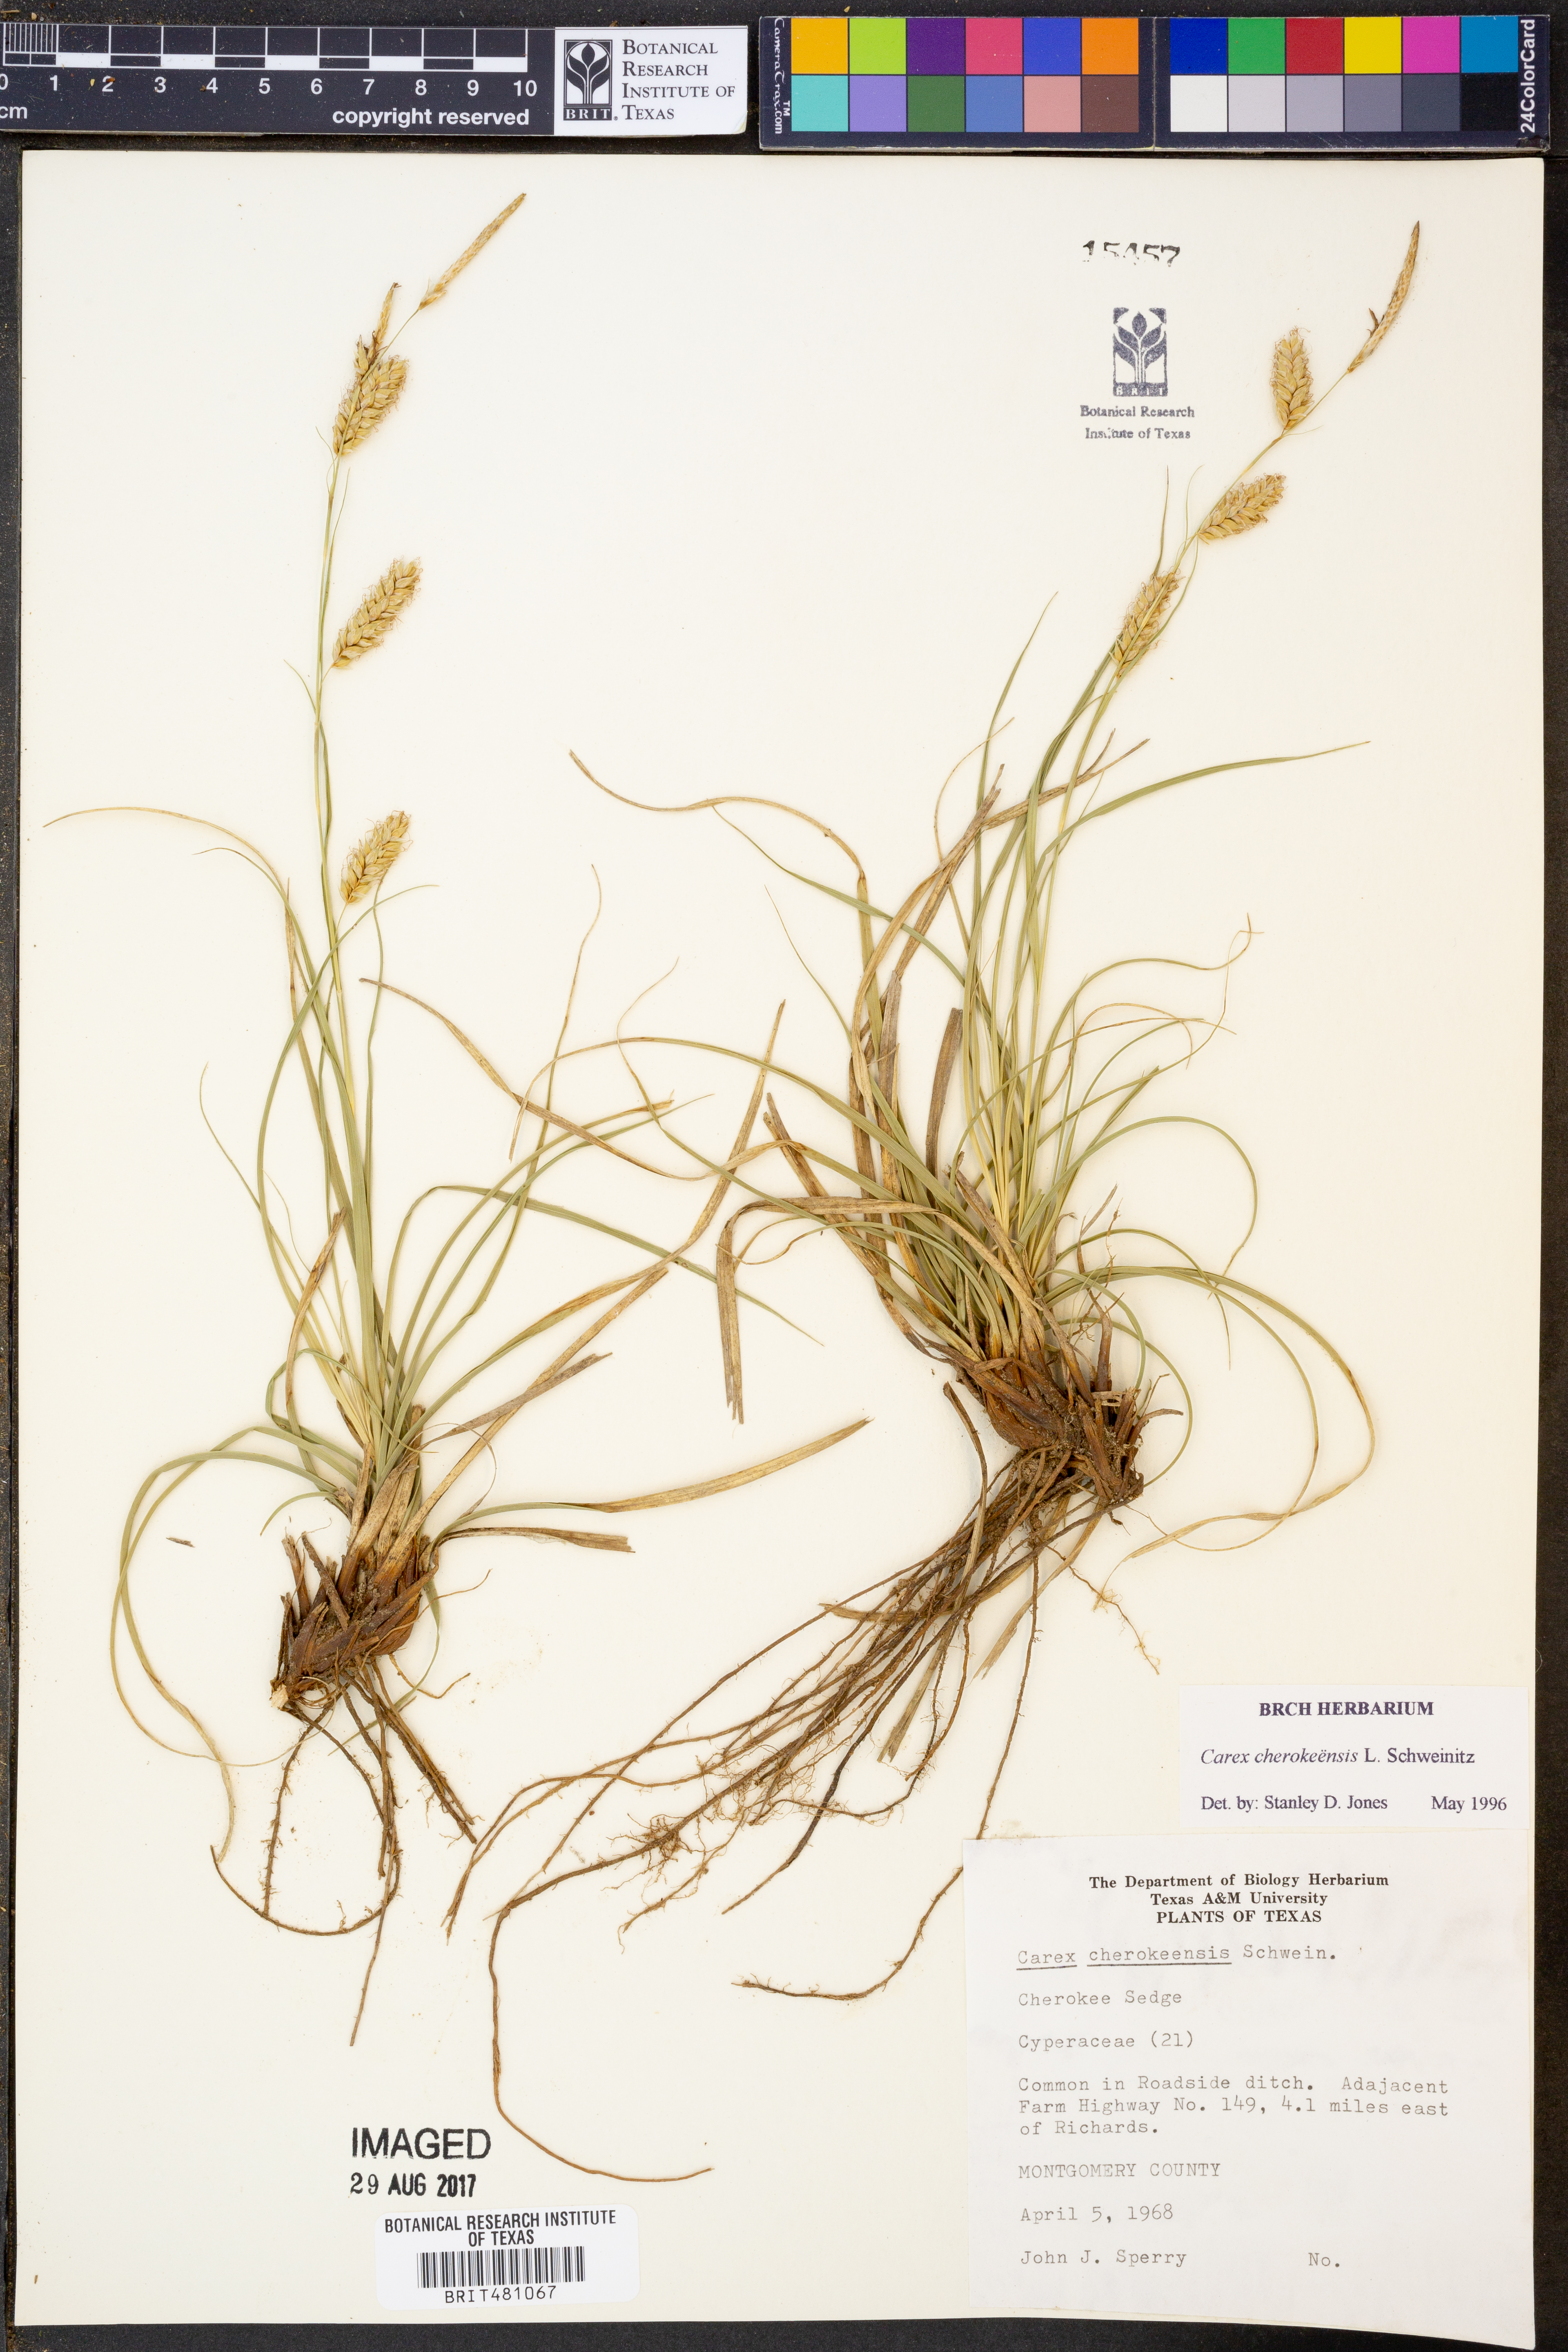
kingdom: Plantae
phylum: Tracheophyta
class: Liliopsida
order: Poales
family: Cyperaceae
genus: Carex
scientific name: Carex cherokeensis
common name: Cherokee sedge
